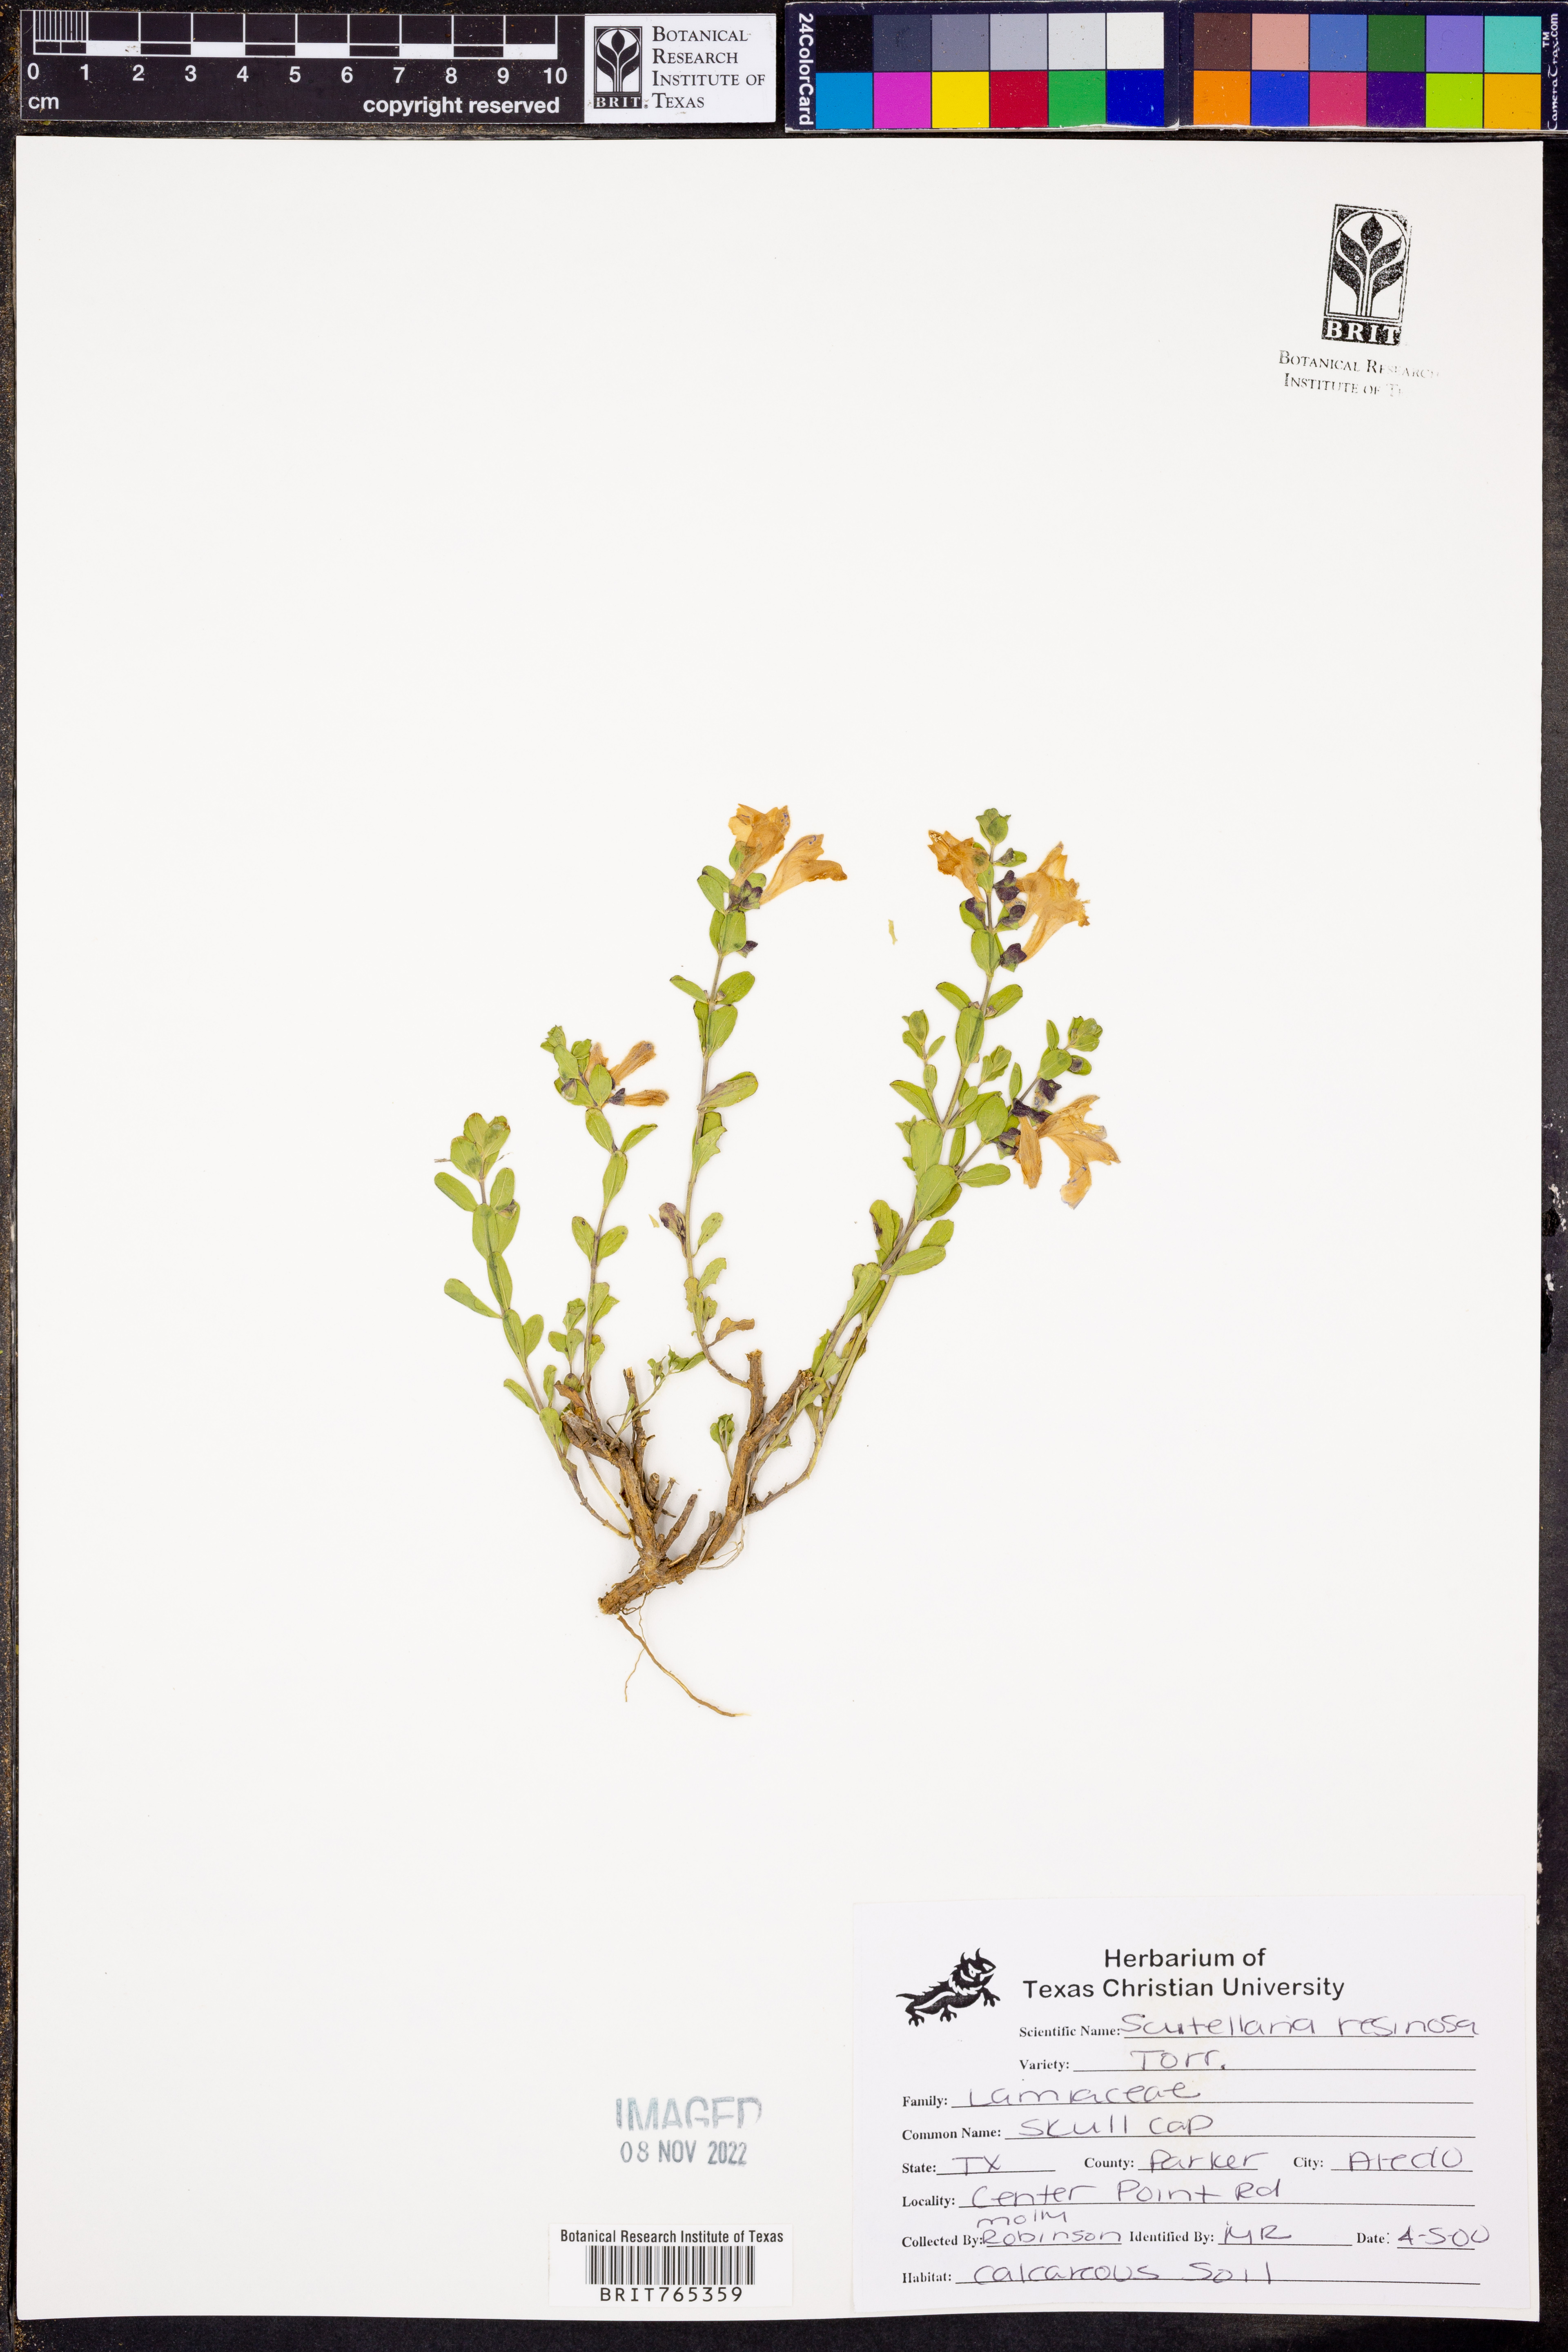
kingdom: Plantae
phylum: Tracheophyta
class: Magnoliopsida
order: Lamiales
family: Lamiaceae
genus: Scutellaria
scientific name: Scutellaria resinosa
